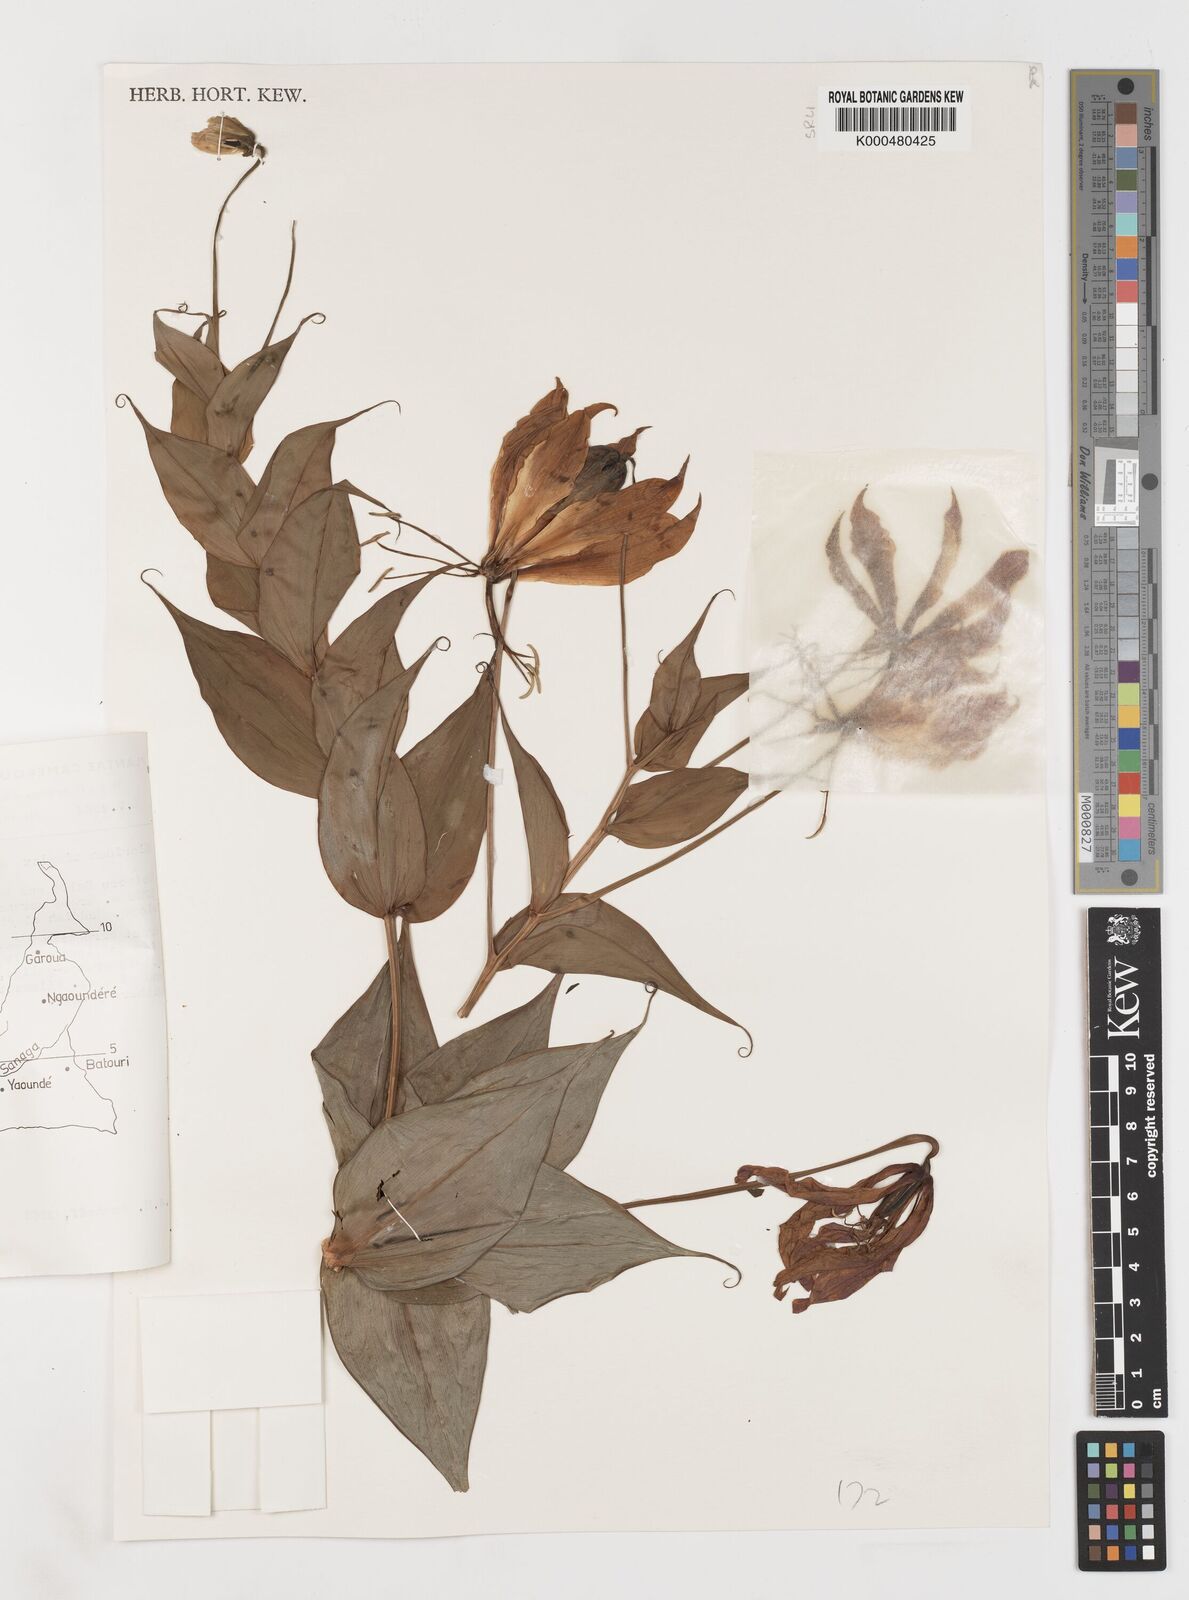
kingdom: Plantae
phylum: Tracheophyta
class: Liliopsida
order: Liliales
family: Colchicaceae
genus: Gloriosa
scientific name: Gloriosa simplex
